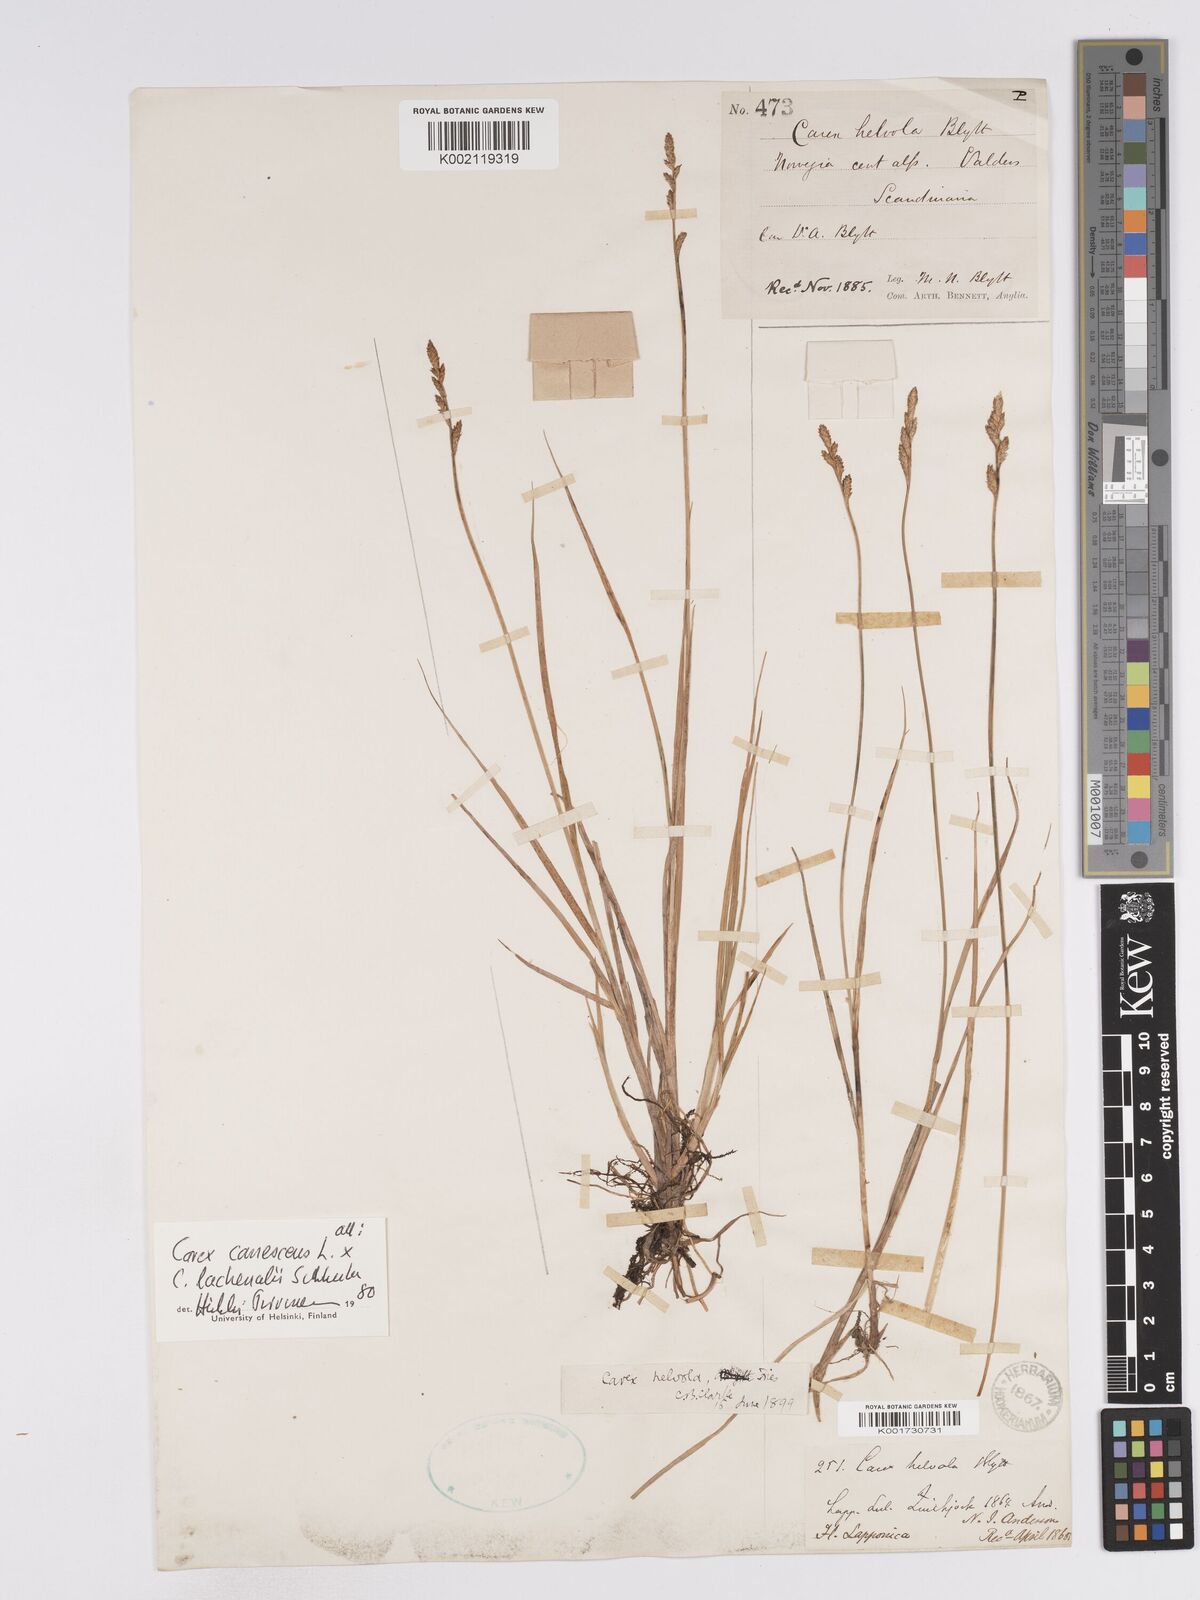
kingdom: Plantae
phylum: Tracheophyta
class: Liliopsida
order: Poales
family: Cyperaceae
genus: Carex
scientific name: Carex
